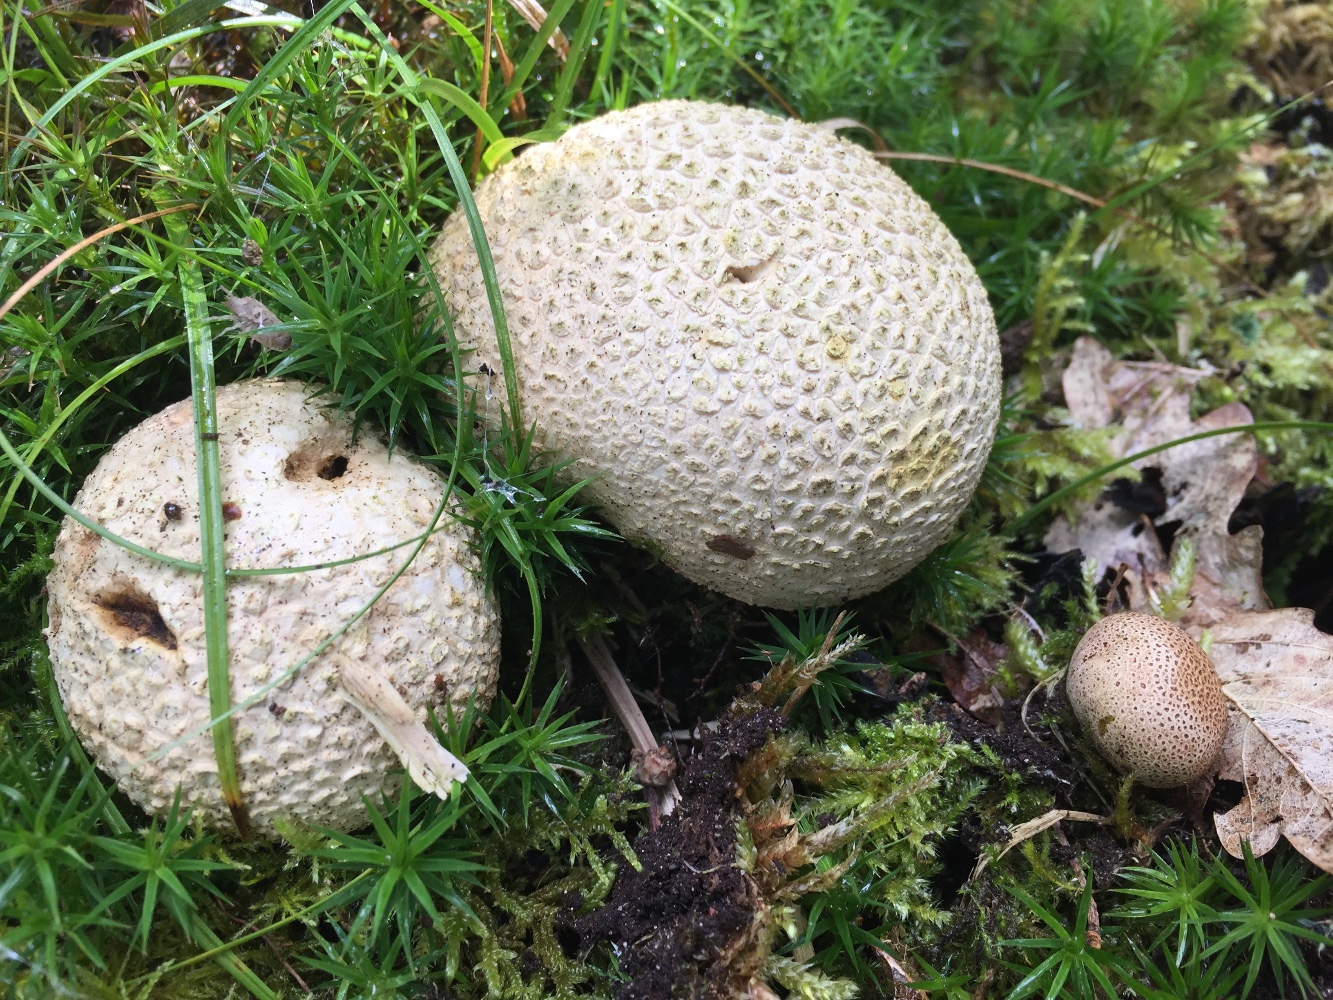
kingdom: Fungi
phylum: Basidiomycota
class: Agaricomycetes
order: Boletales
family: Sclerodermataceae
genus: Scleroderma
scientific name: Scleroderma citrinum
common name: almindelig bruskbold
